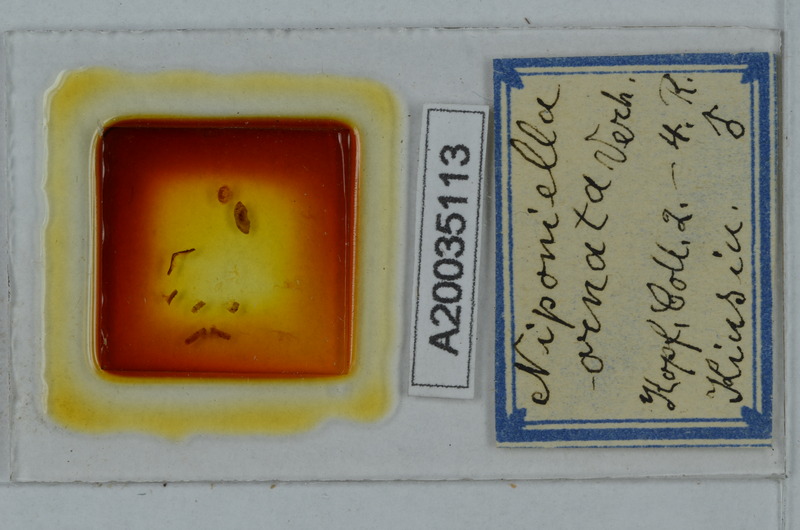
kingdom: Animalia
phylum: Arthropoda
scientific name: Arthropoda
